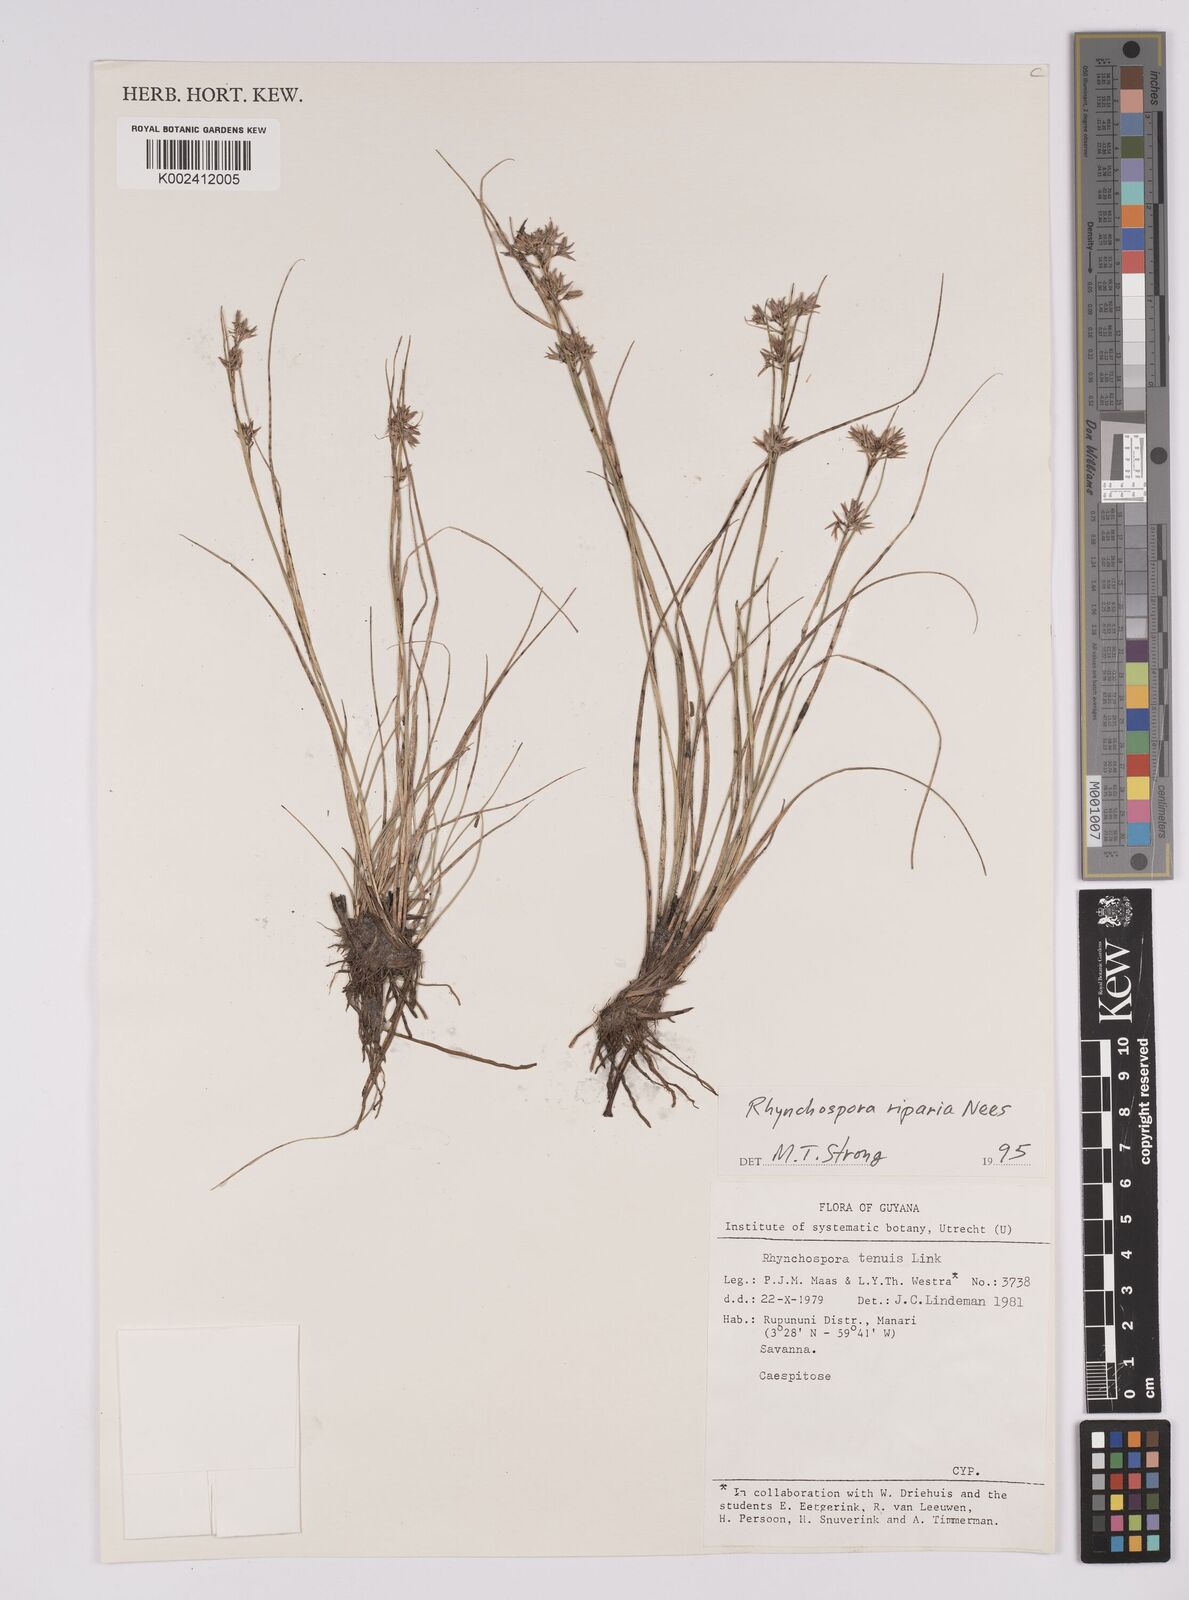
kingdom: Plantae
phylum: Tracheophyta
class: Liliopsida
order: Poales
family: Cyperaceae
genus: Rhynchospora
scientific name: Rhynchospora riparia
